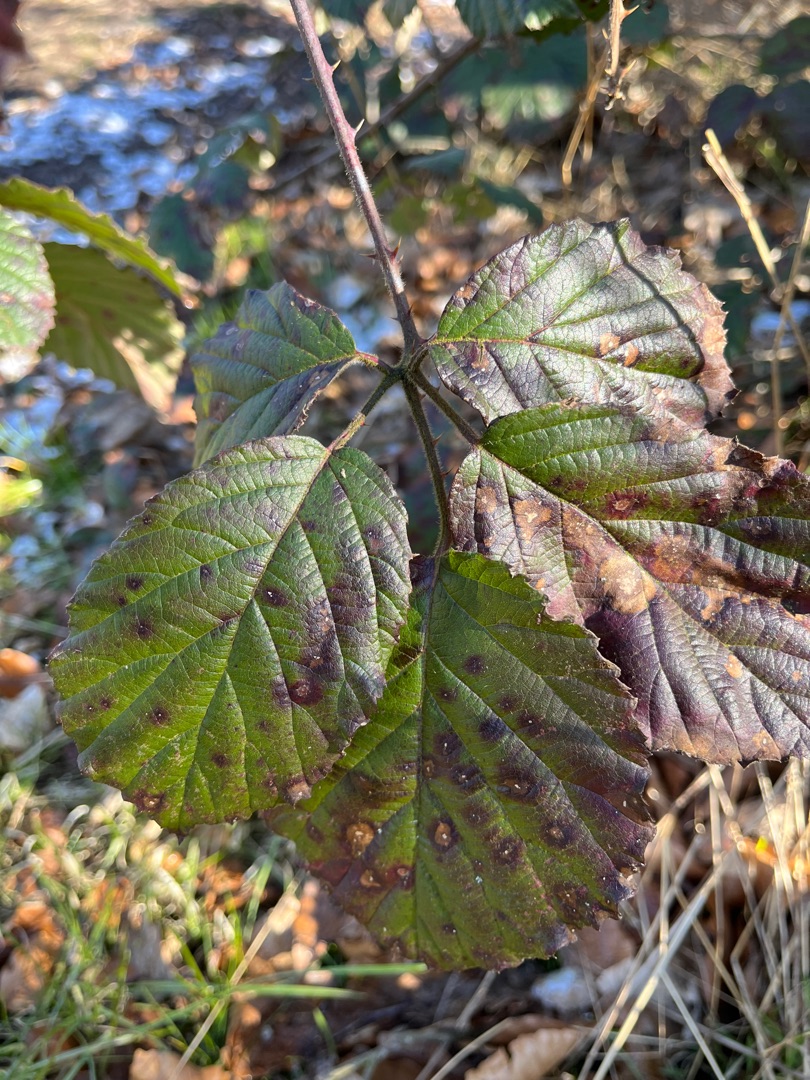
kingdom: Plantae
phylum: Tracheophyta
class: Magnoliopsida
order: Rosales
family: Rosaceae
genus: Rubus
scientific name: Rubus vestitus
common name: Rundbladet brombær
